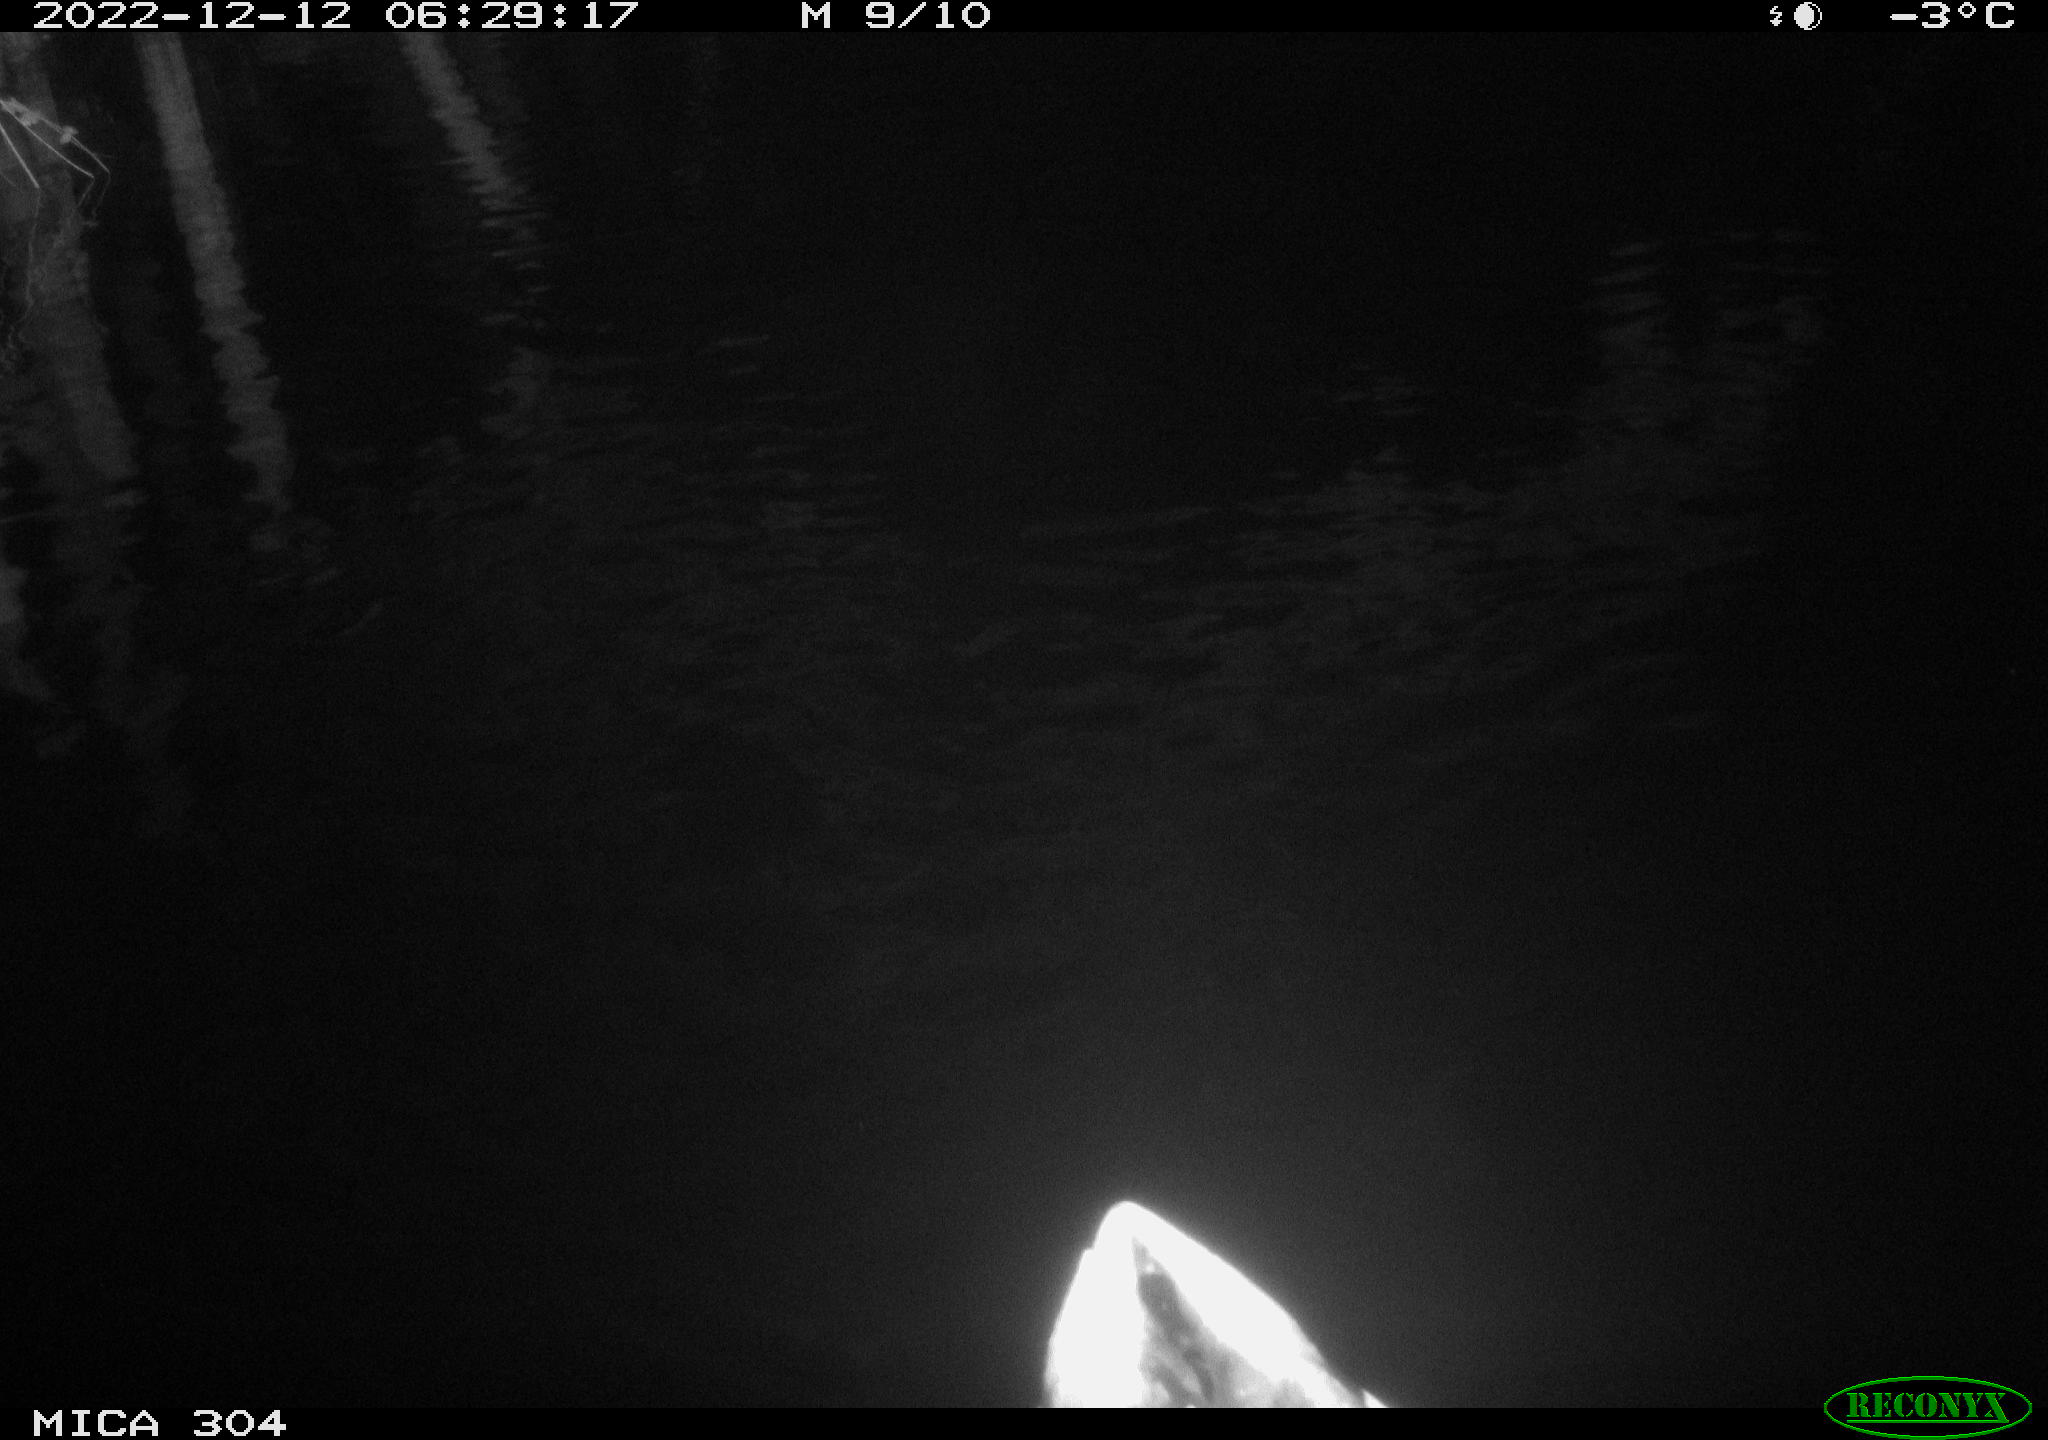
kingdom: Animalia
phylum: Chordata
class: Aves
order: Anseriformes
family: Anatidae
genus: Anas
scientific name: Anas
